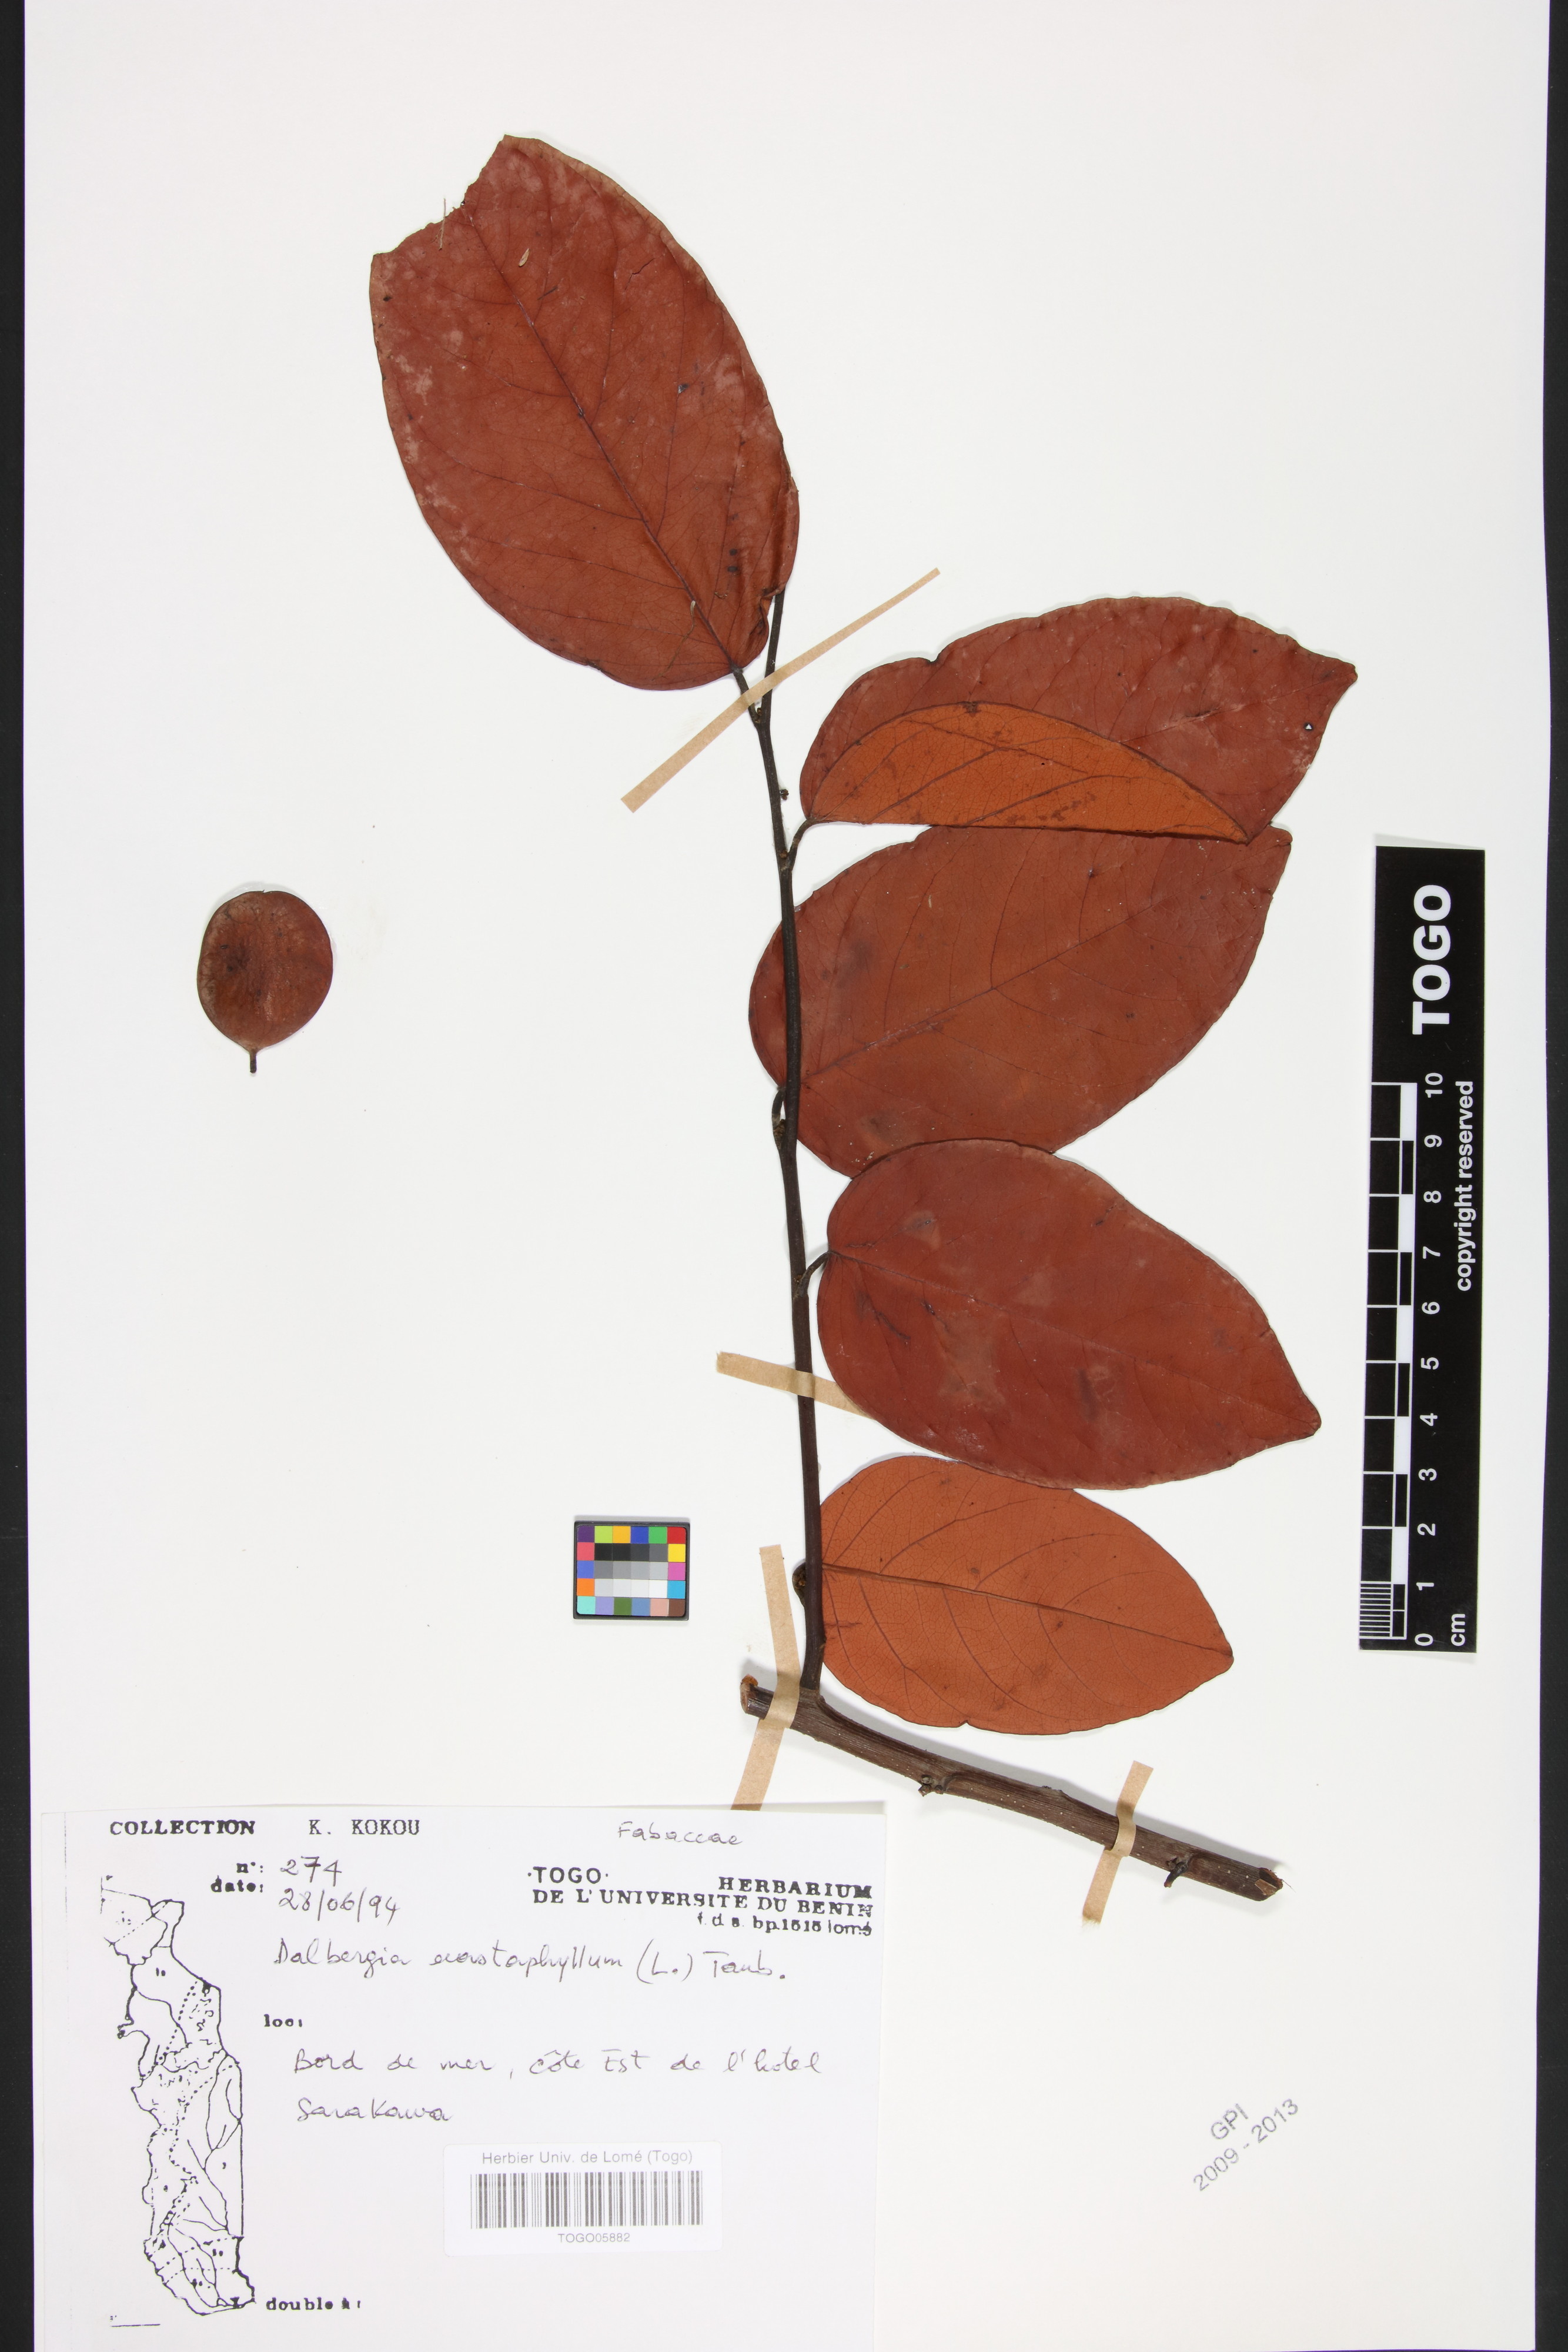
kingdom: Plantae
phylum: Tracheophyta
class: Magnoliopsida
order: Fabales
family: Fabaceae
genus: Dalbergia
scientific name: Dalbergia ecastaphyllum
